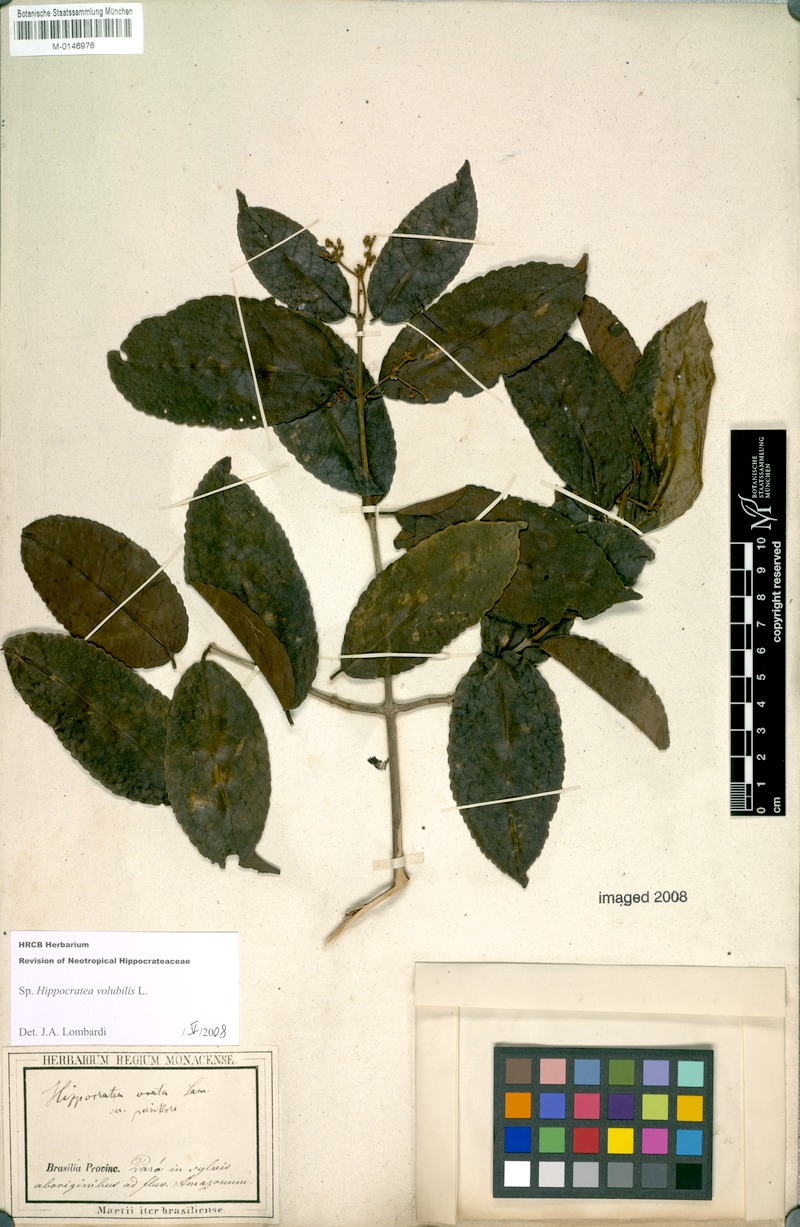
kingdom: Plantae
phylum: Tracheophyta
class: Magnoliopsida
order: Celastrales
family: Celastraceae
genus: Hippocratea
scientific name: Hippocratea volubilis
